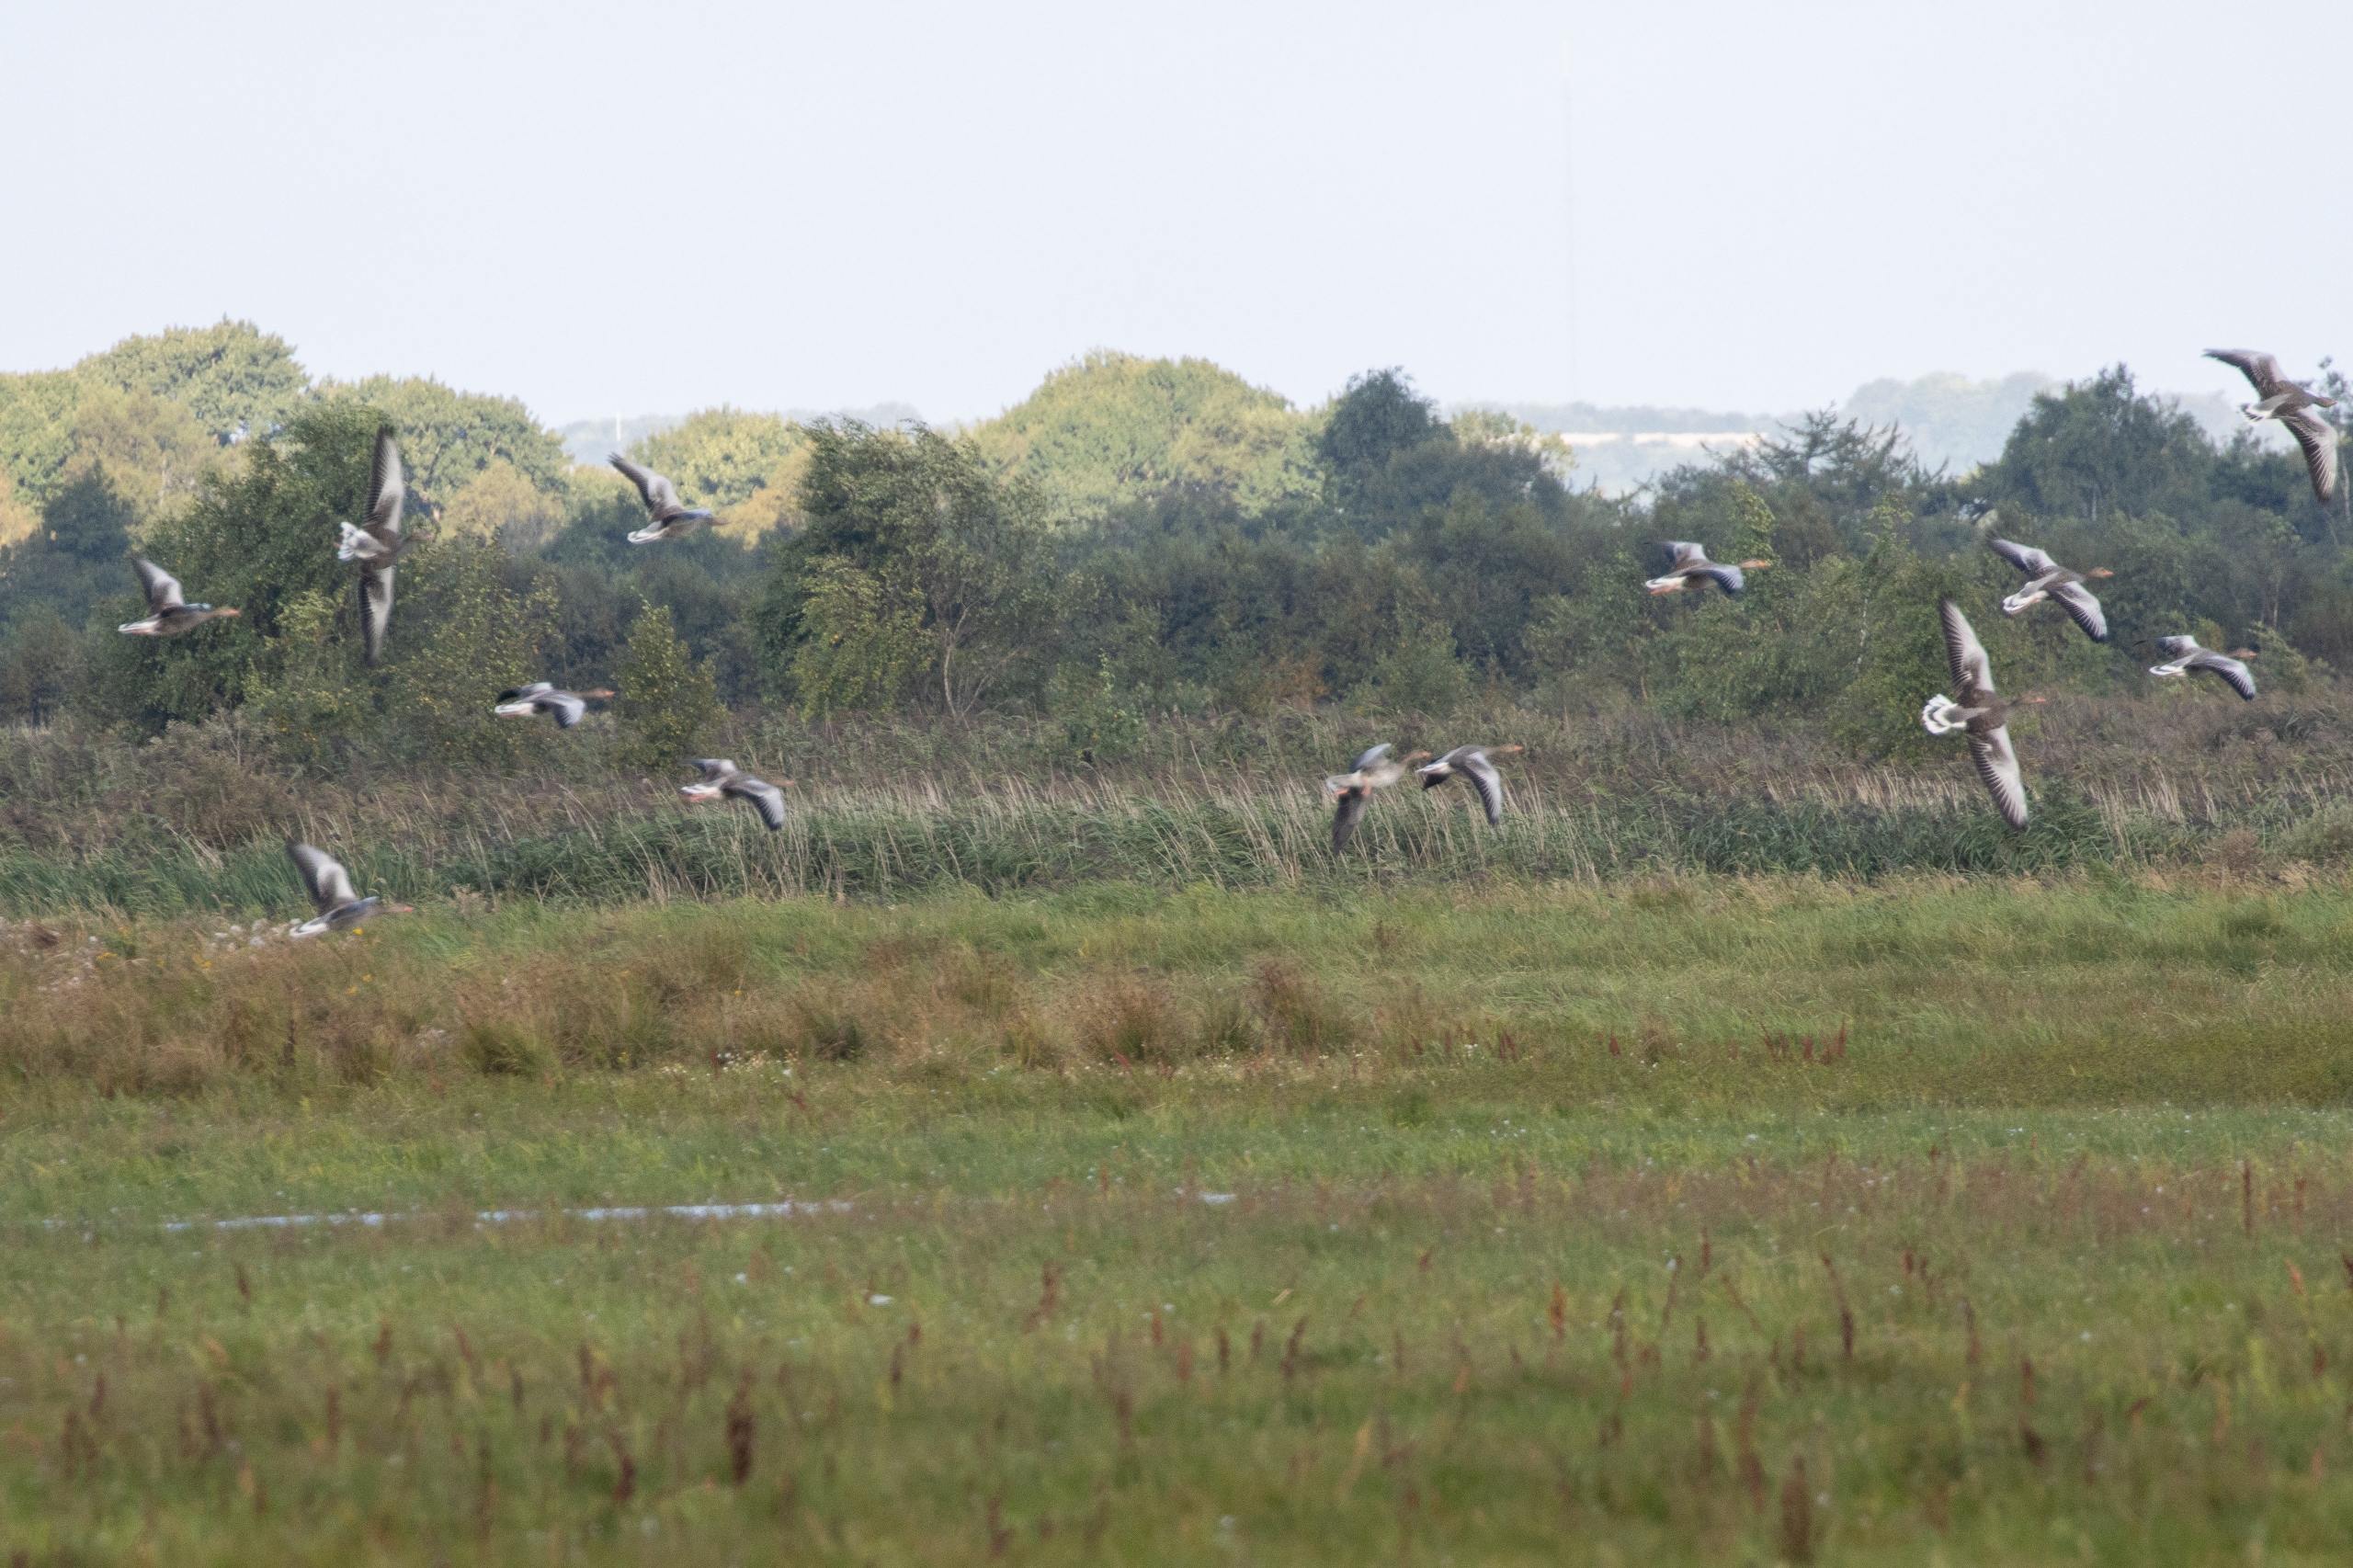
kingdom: Animalia
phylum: Chordata
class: Aves
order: Anseriformes
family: Anatidae
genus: Anser
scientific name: Anser anser
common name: Grågås
